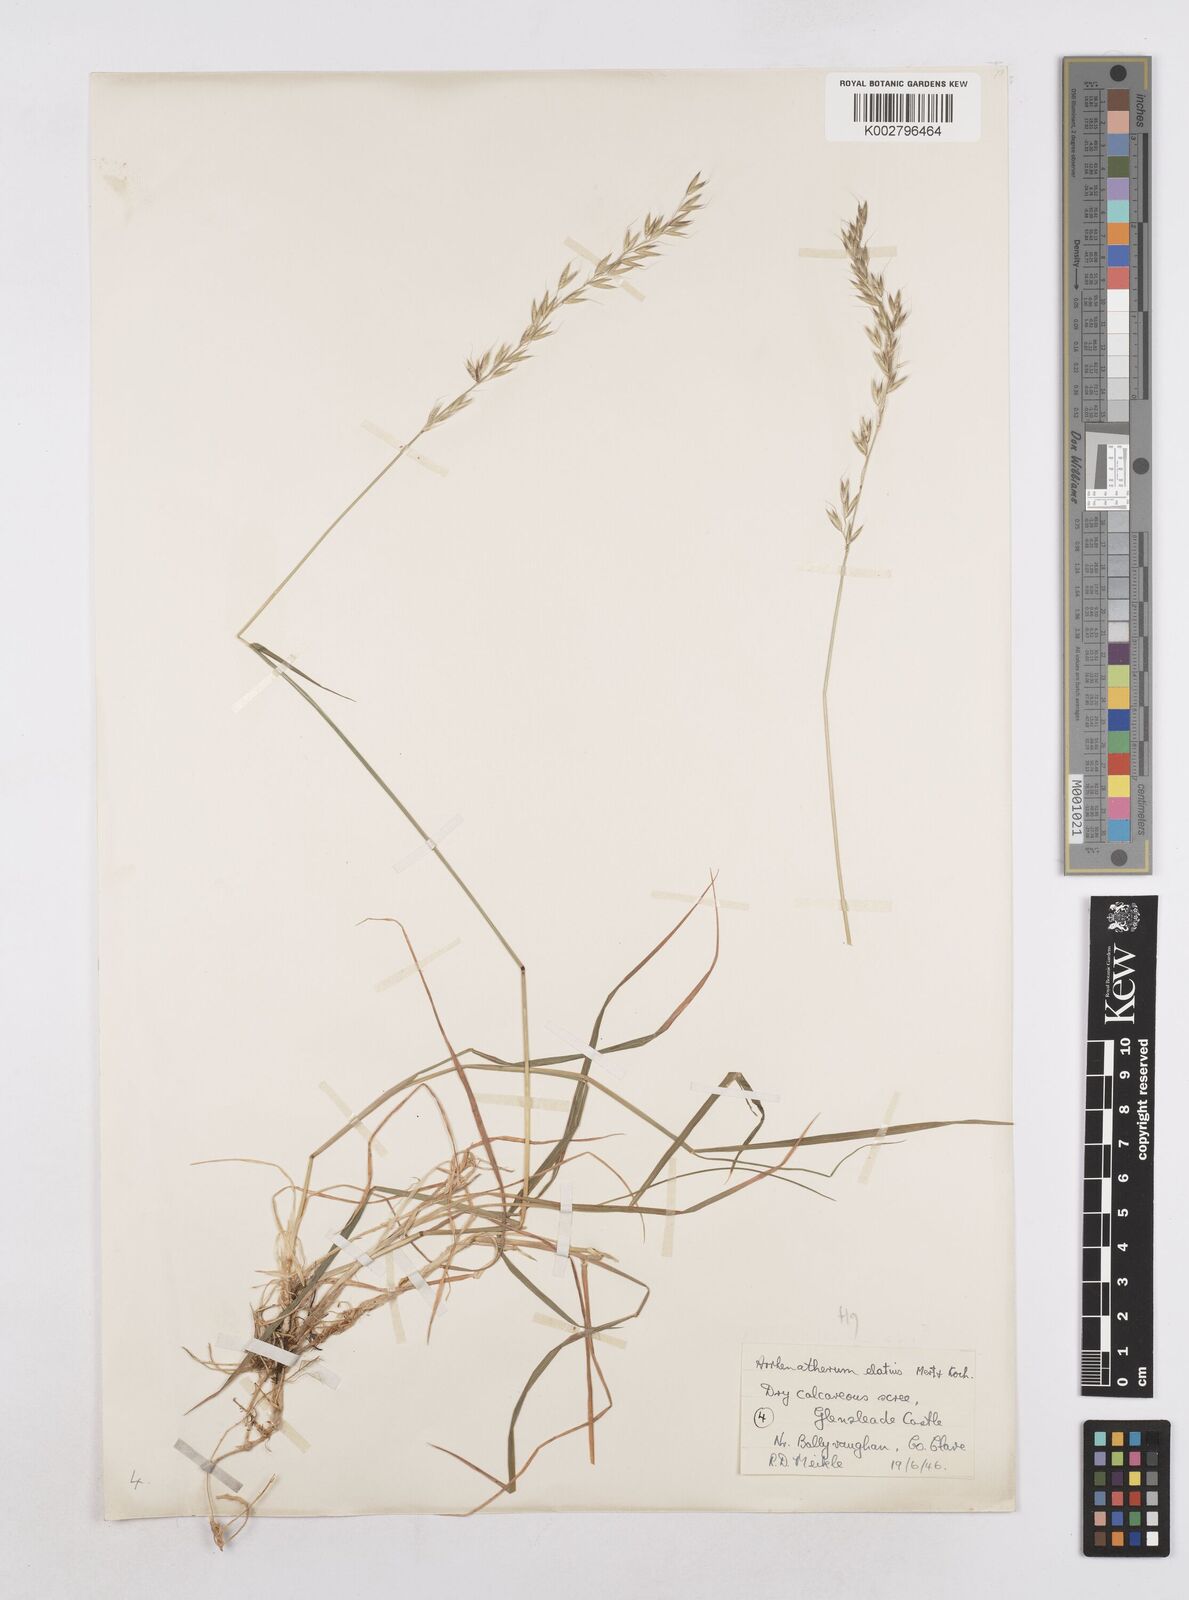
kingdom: Plantae
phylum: Tracheophyta
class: Liliopsida
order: Poales
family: Poaceae
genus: Arrhenatherum
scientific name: Arrhenatherum elatius
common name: Tall oatgrass
